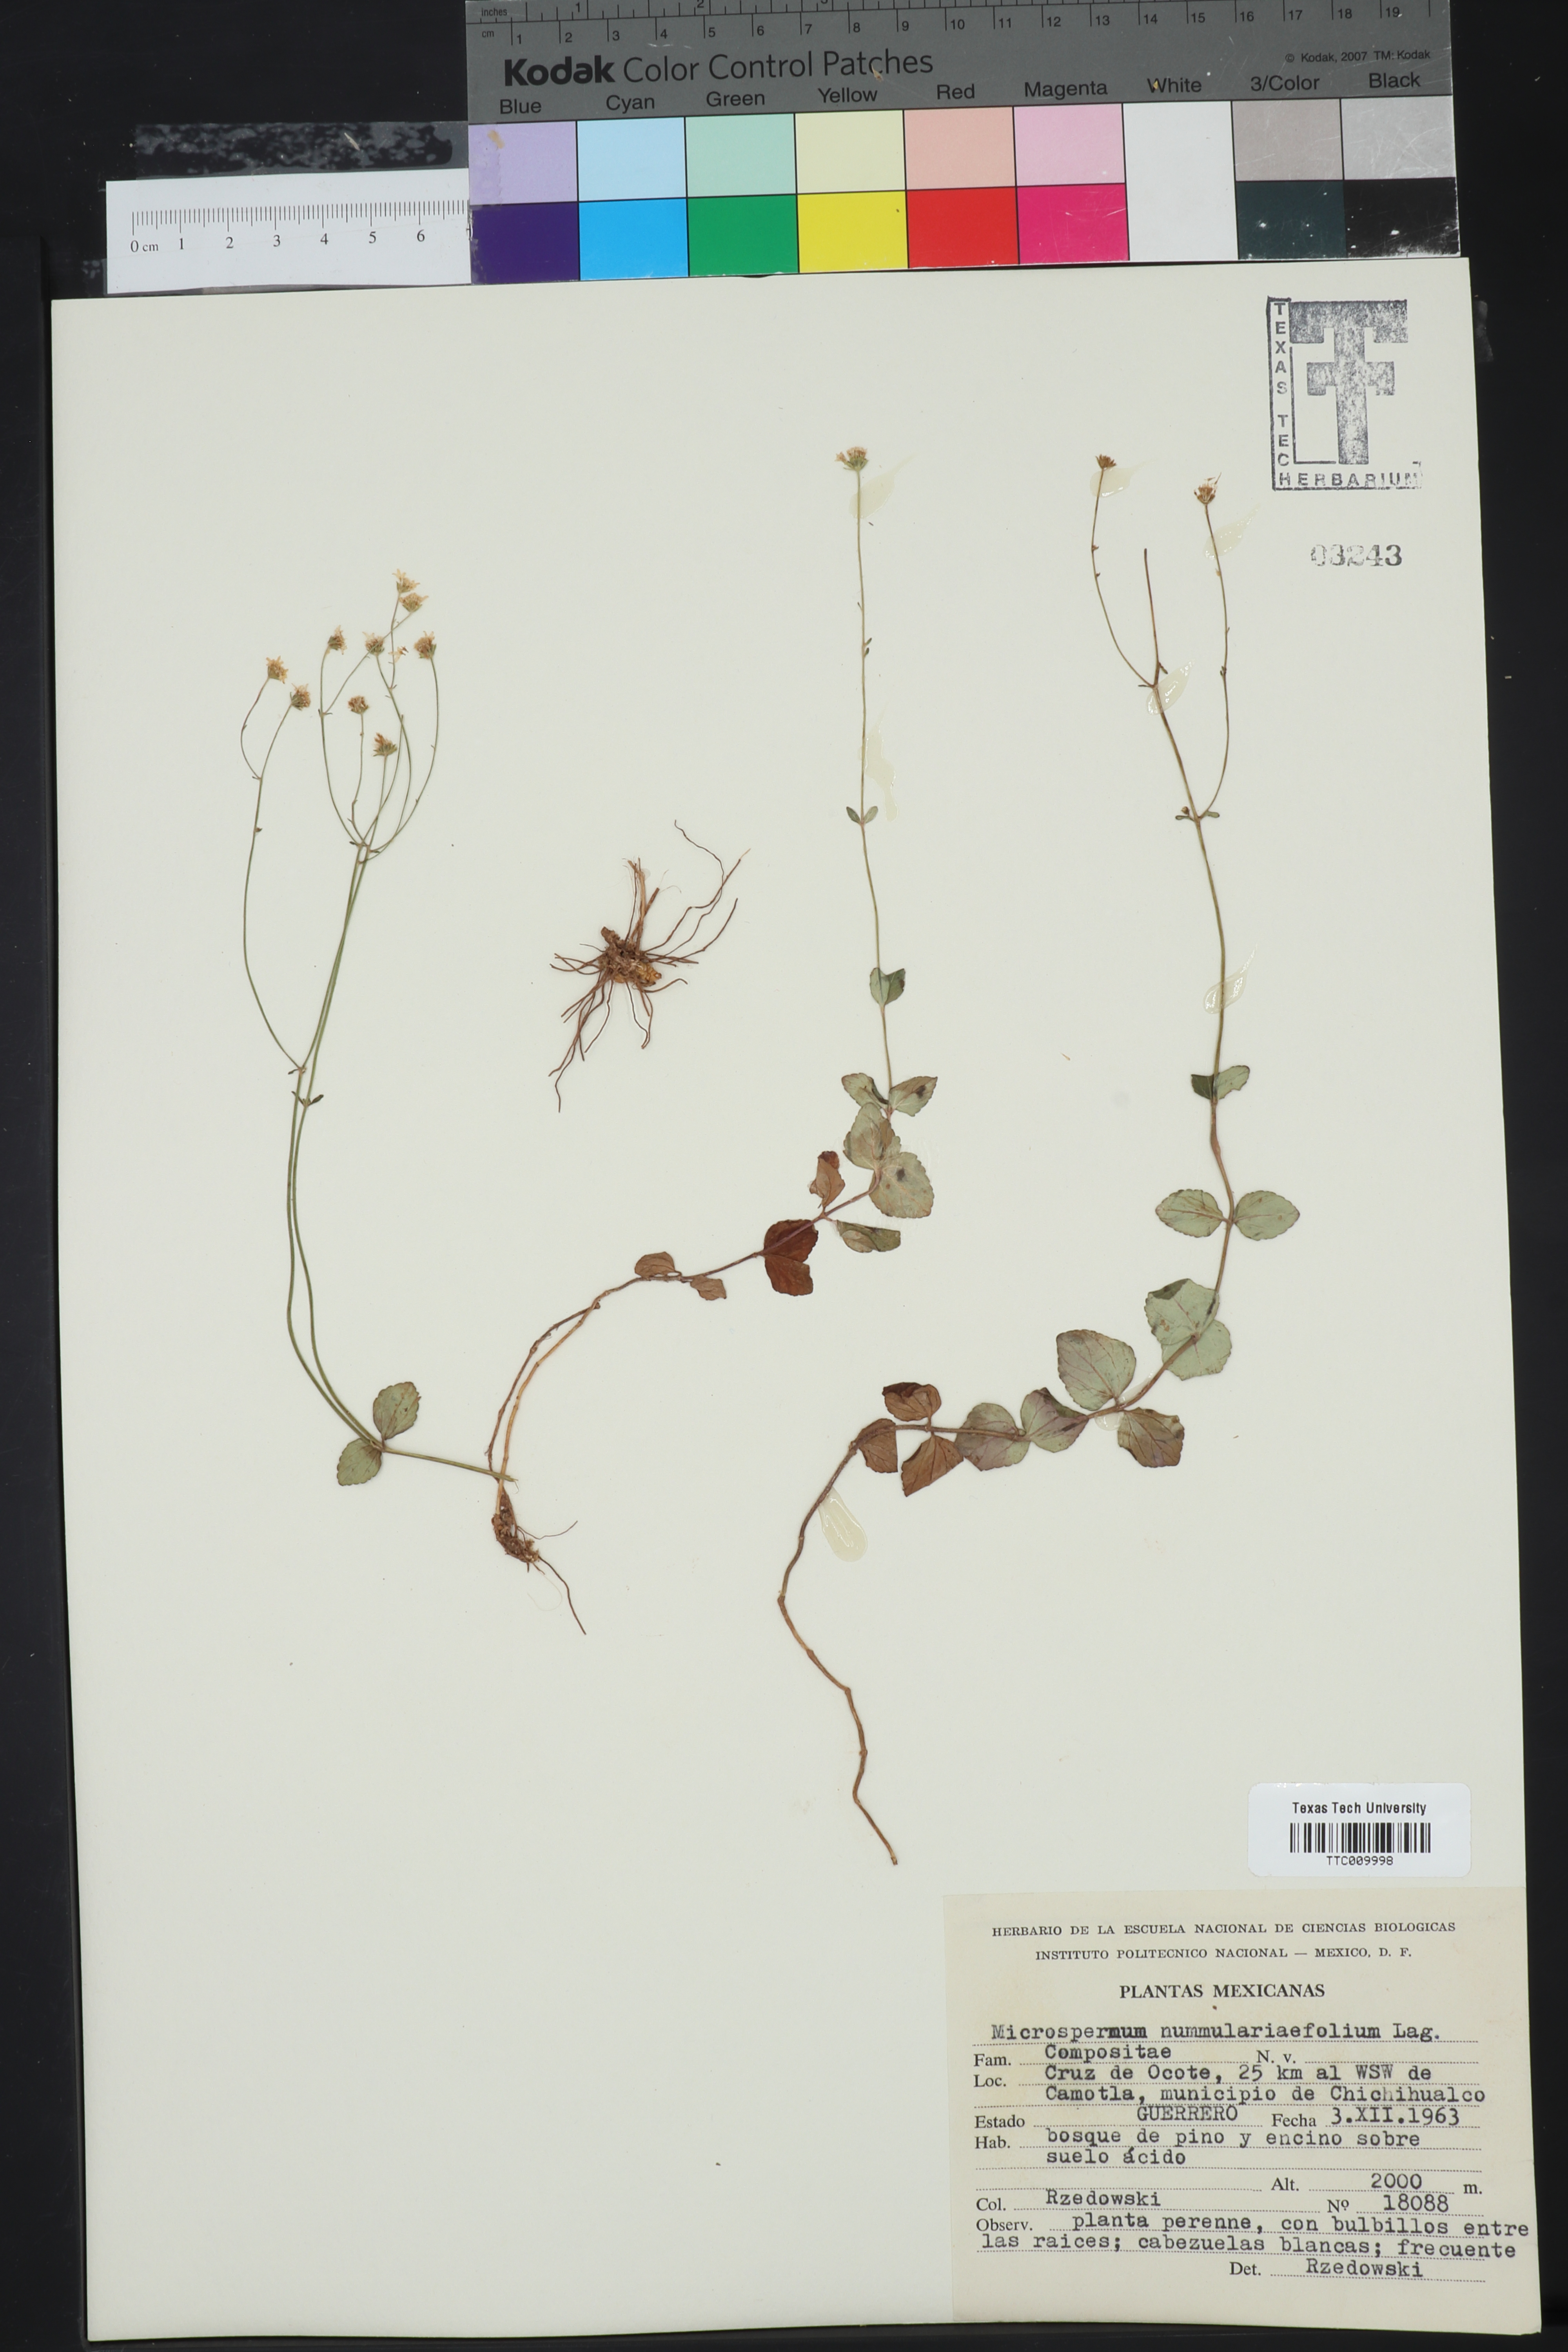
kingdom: Plantae
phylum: Tracheophyta
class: Magnoliopsida
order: Asterales
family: Asteraceae
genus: Microspermum
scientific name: Microspermum nummulariifolium
